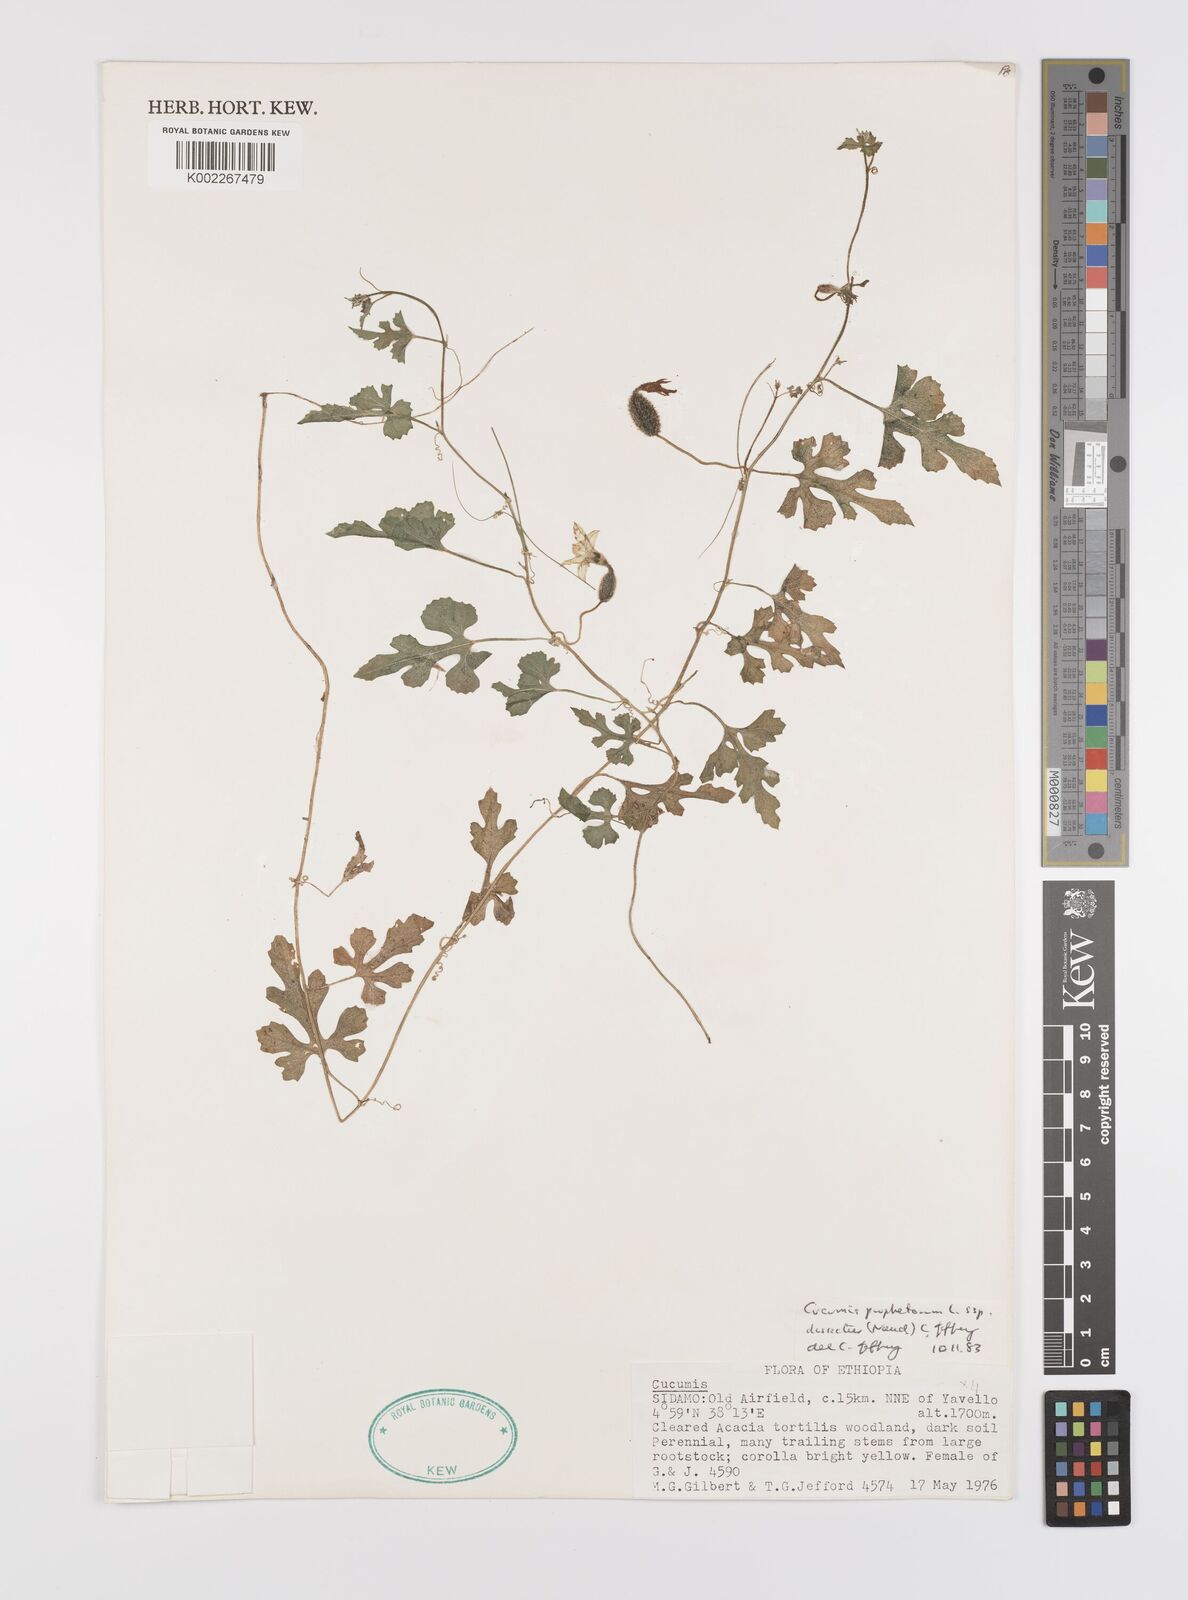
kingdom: Plantae
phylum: Tracheophyta
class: Magnoliopsida
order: Cucurbitales
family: Cucurbitaceae
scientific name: Cucurbitaceae
